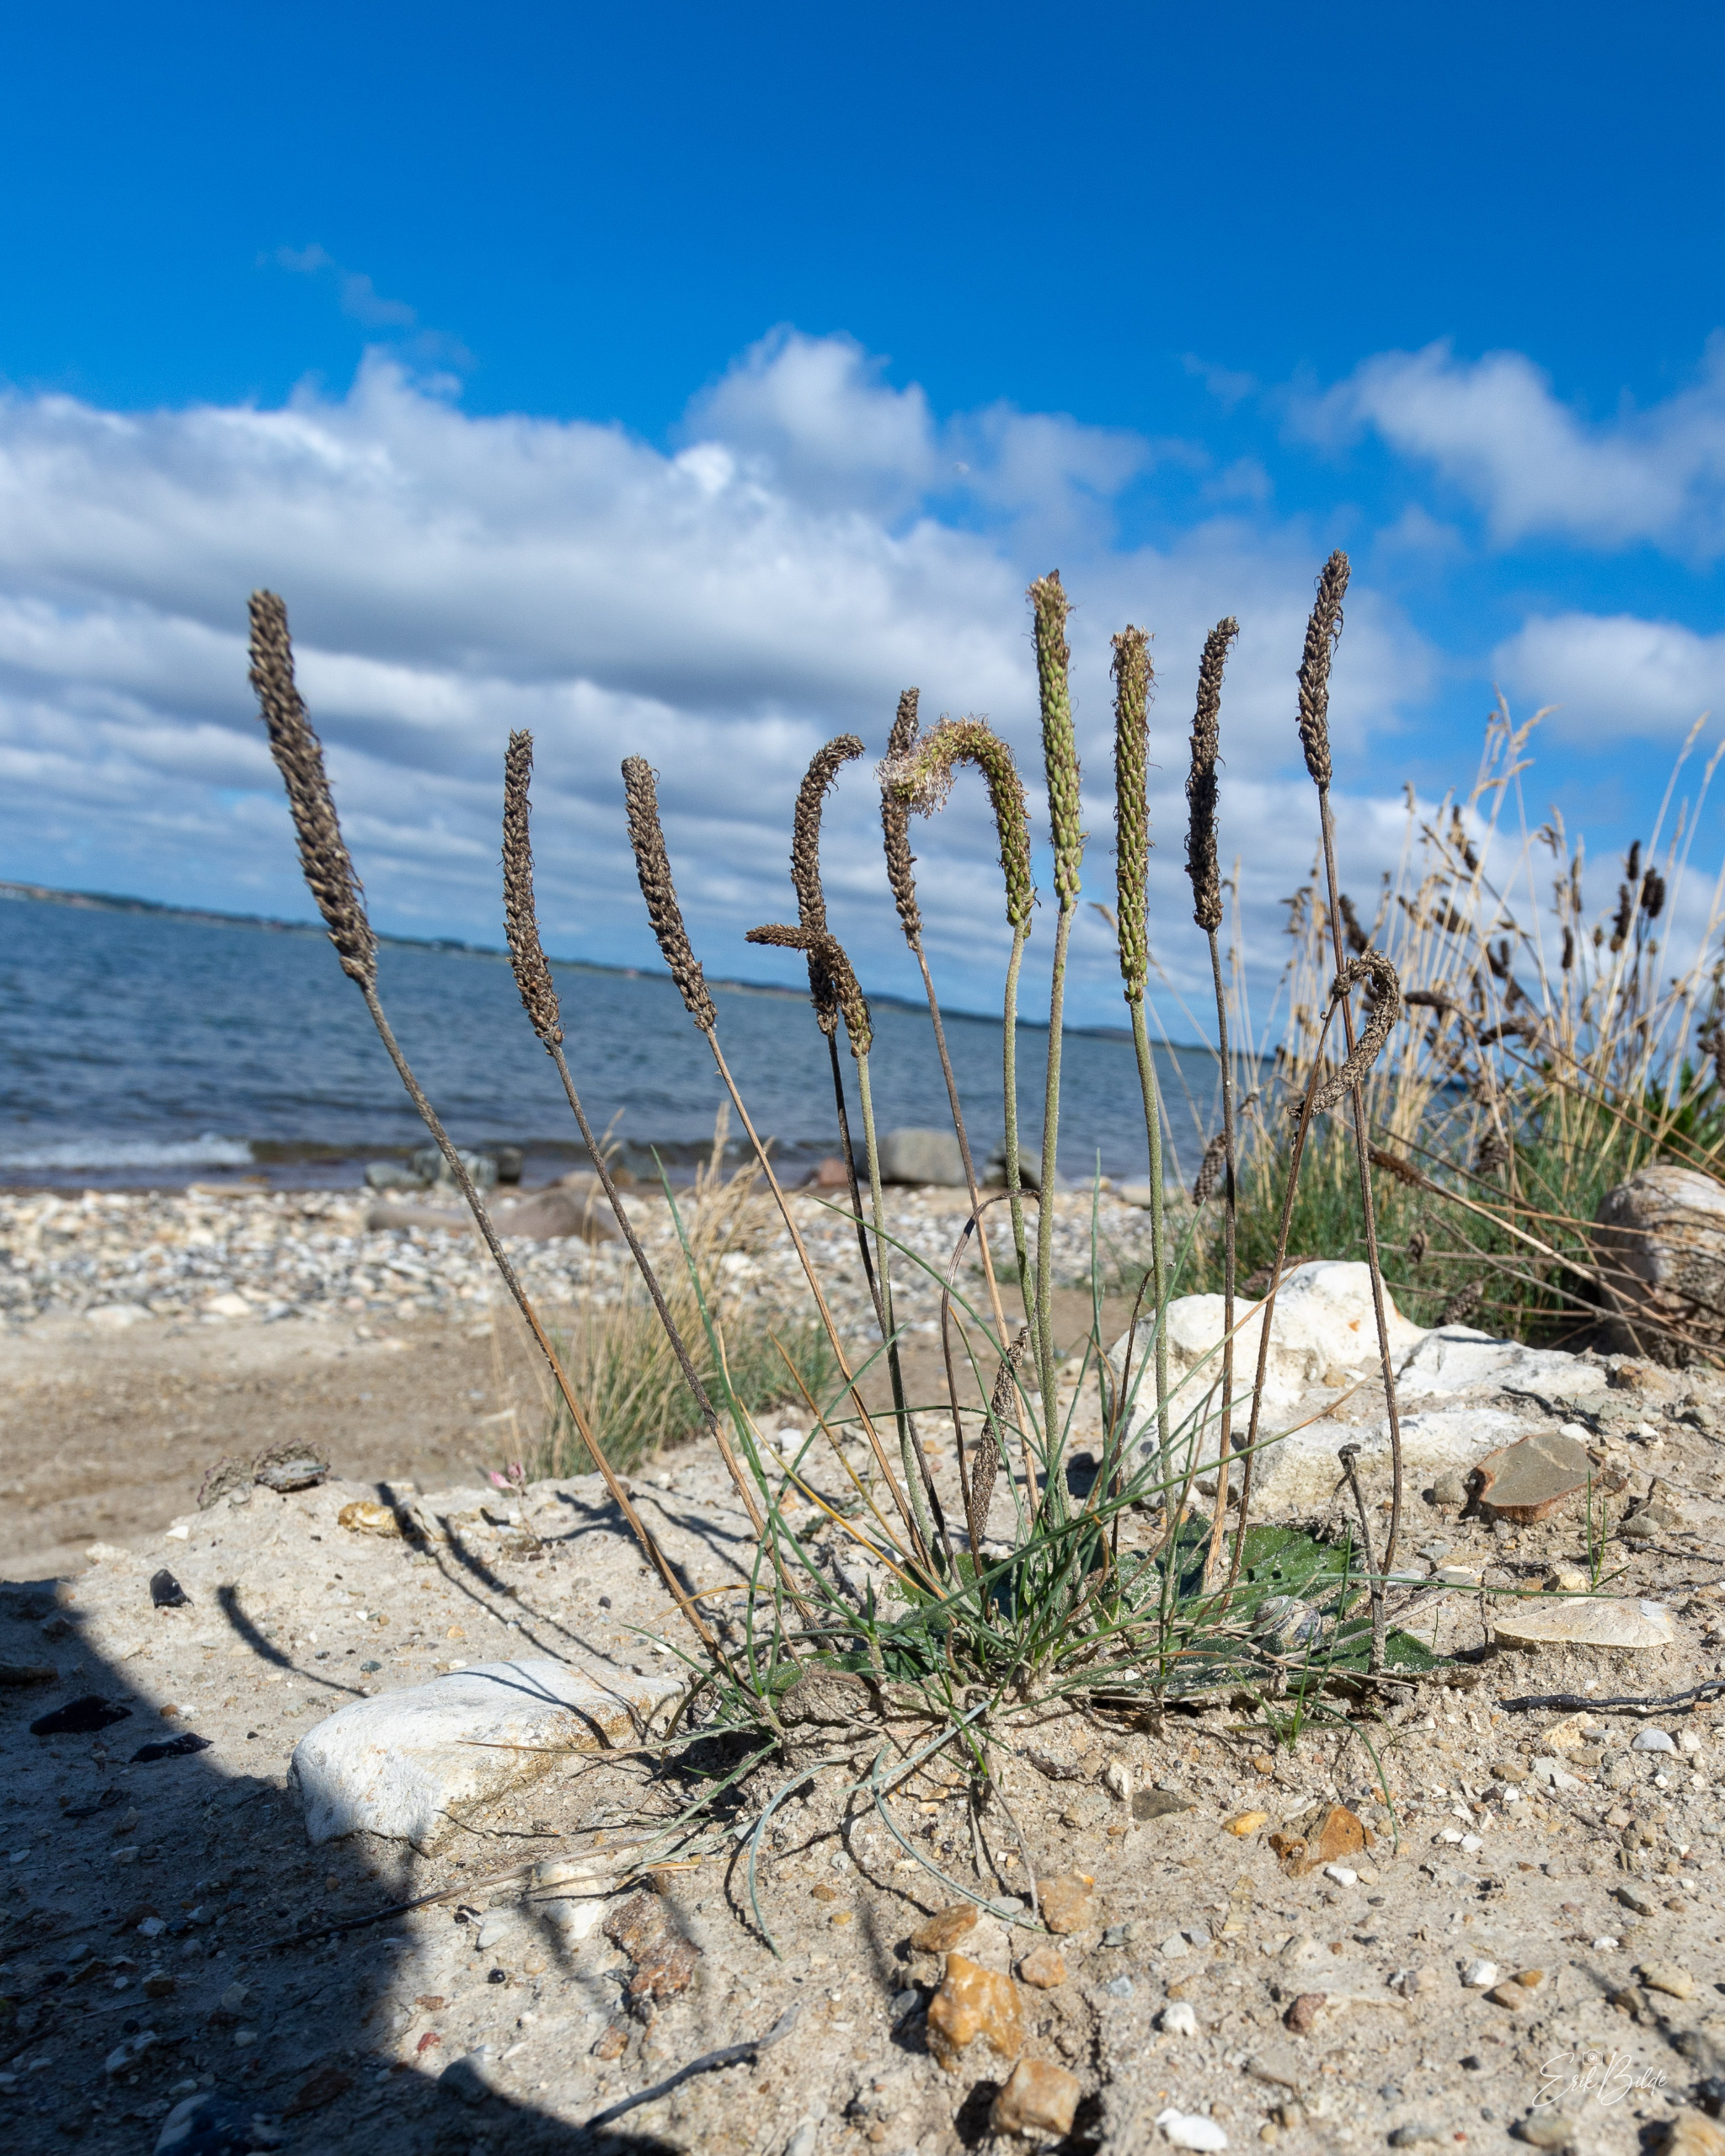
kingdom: Plantae
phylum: Tracheophyta
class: Magnoliopsida
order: Lamiales
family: Plantaginaceae
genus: Plantago
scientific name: Plantago maritima
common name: Strand-vejbred
